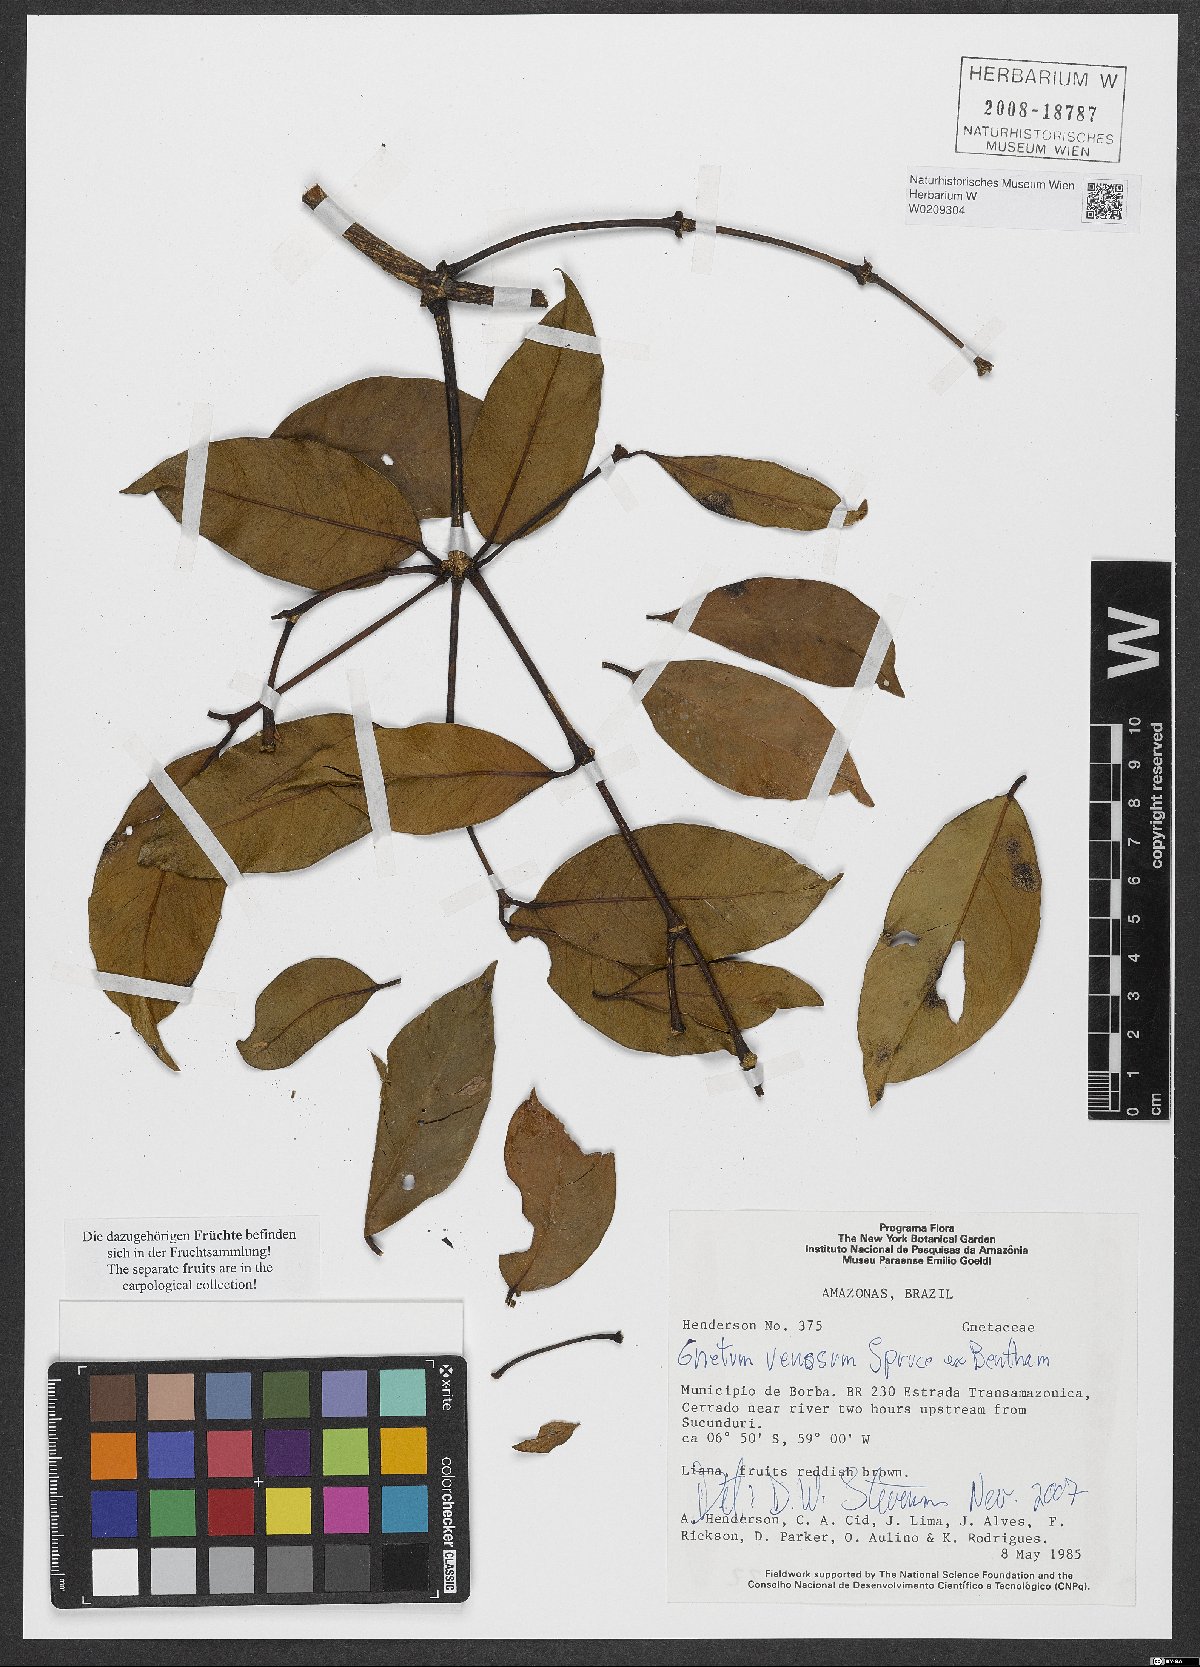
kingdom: Plantae
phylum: Tracheophyta
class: Gnetopsida
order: Gnetales
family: Gnetaceae
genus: Gnetum
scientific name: Gnetum venosum
